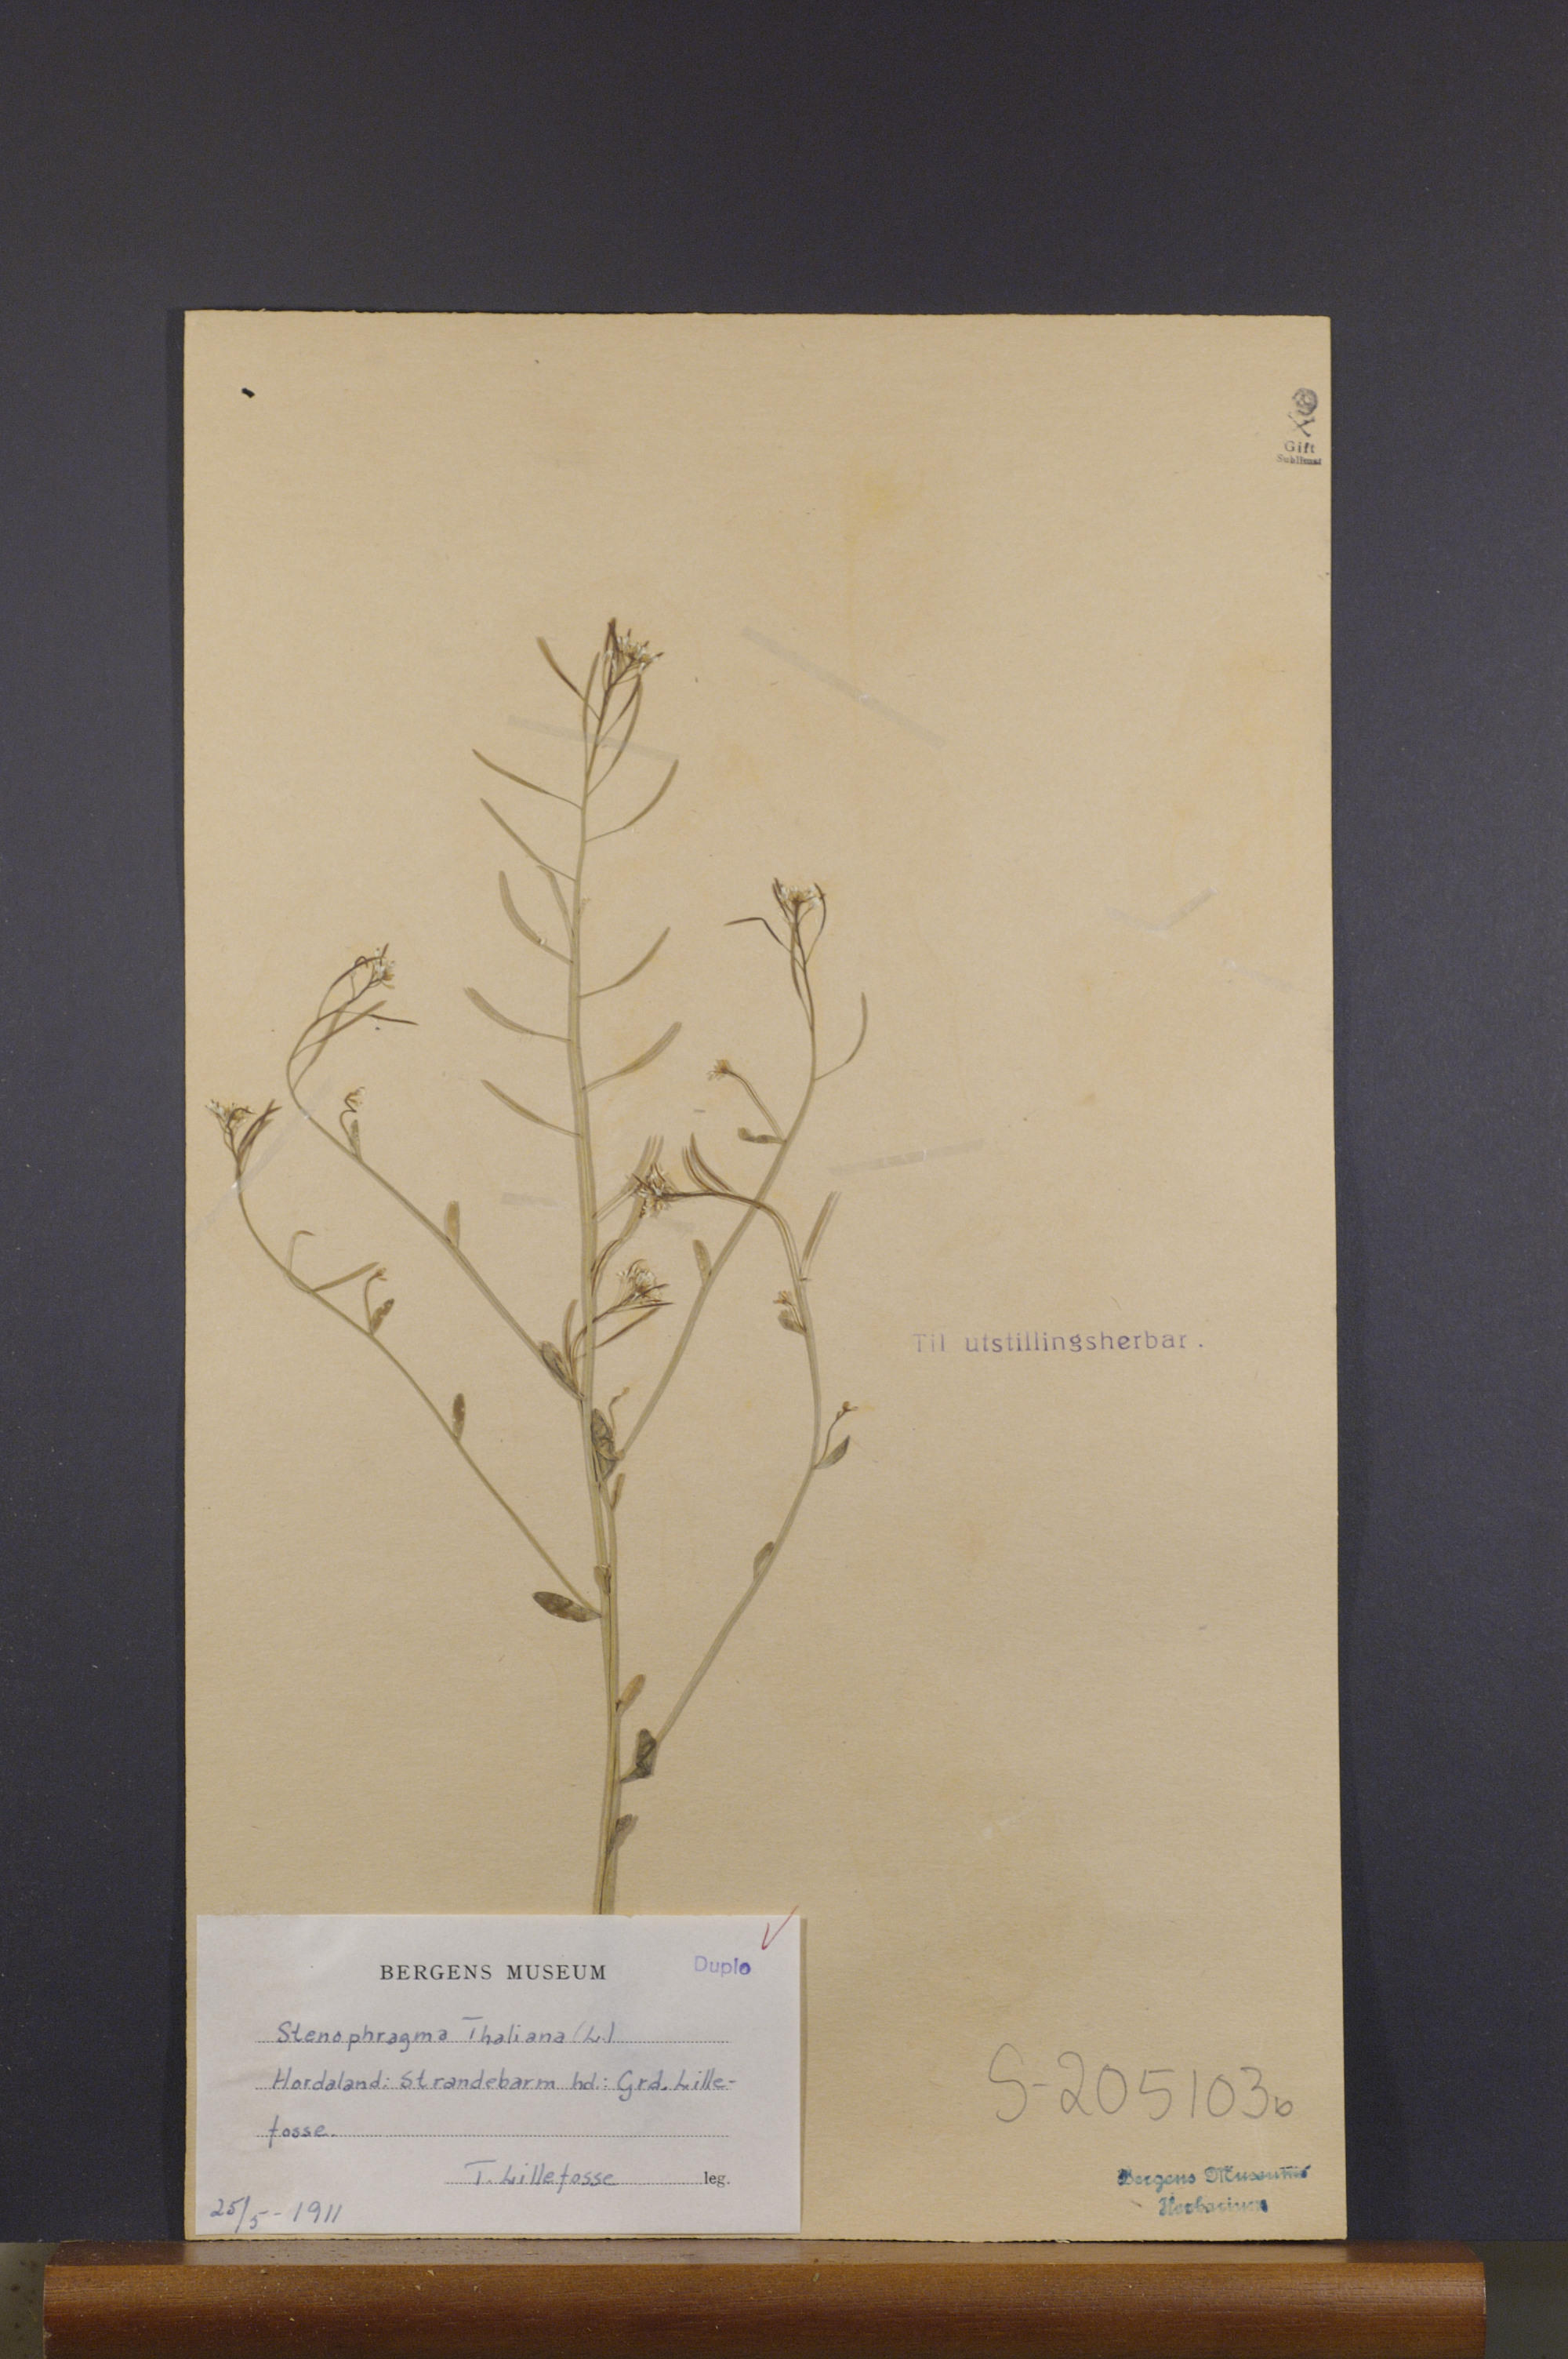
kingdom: Plantae
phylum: Tracheophyta
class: Magnoliopsida
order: Brassicales
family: Brassicaceae
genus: Arabidopsis
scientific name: Arabidopsis thaliana
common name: Thale cress
